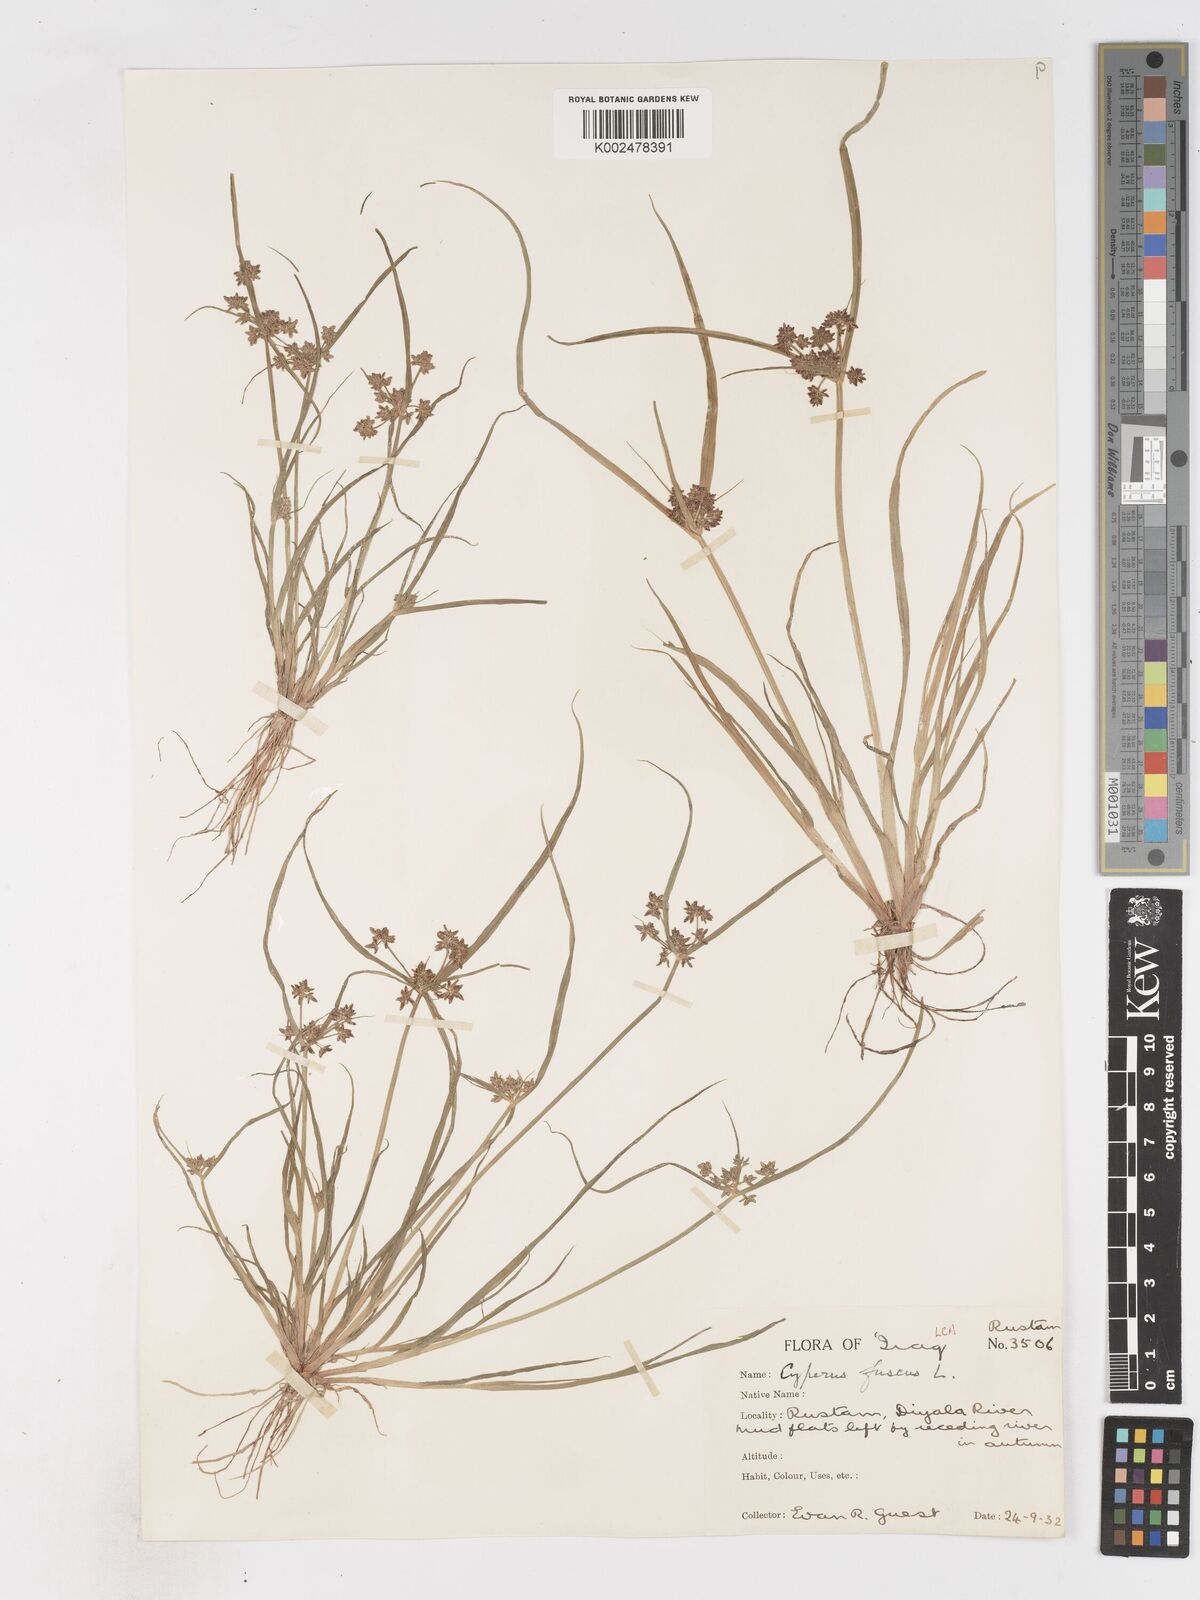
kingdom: Plantae
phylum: Tracheophyta
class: Liliopsida
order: Poales
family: Cyperaceae
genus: Cyperus
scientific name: Cyperus fuscus
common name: Brown galingale
